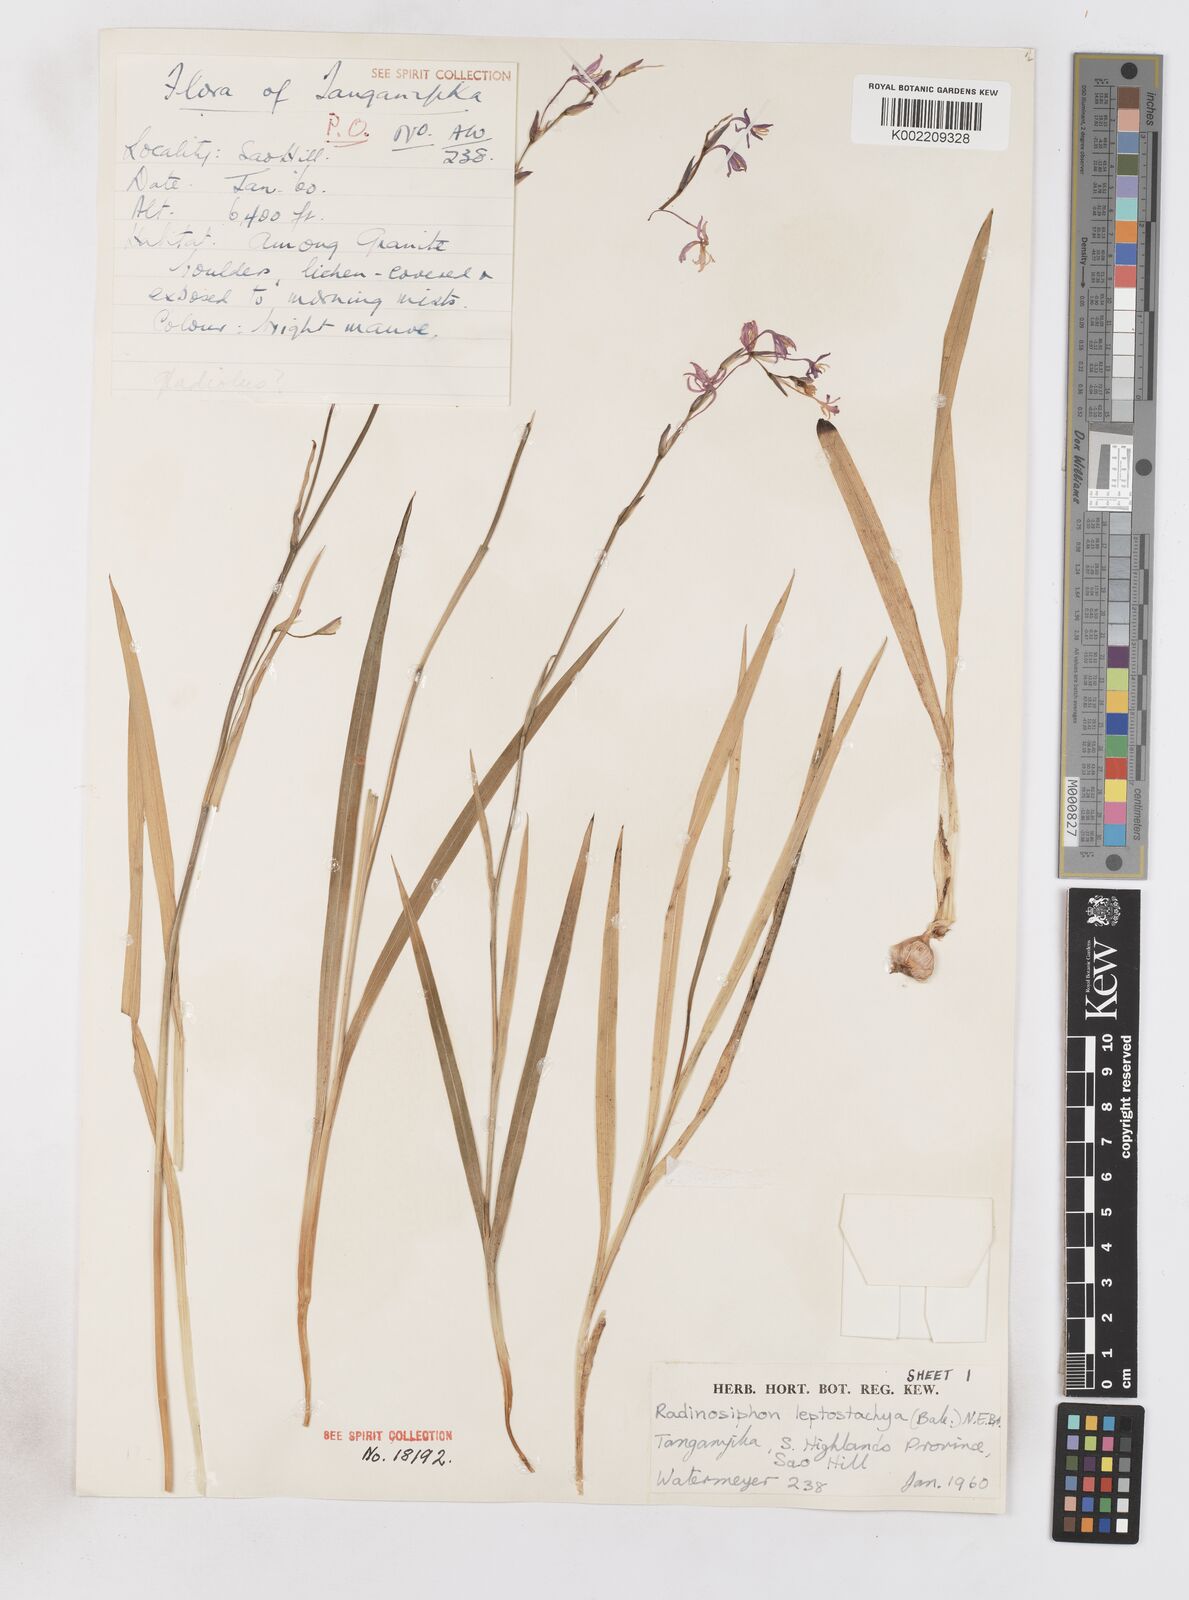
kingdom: Plantae
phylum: Tracheophyta
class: Liliopsida
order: Asparagales
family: Iridaceae
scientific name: Iridaceae
